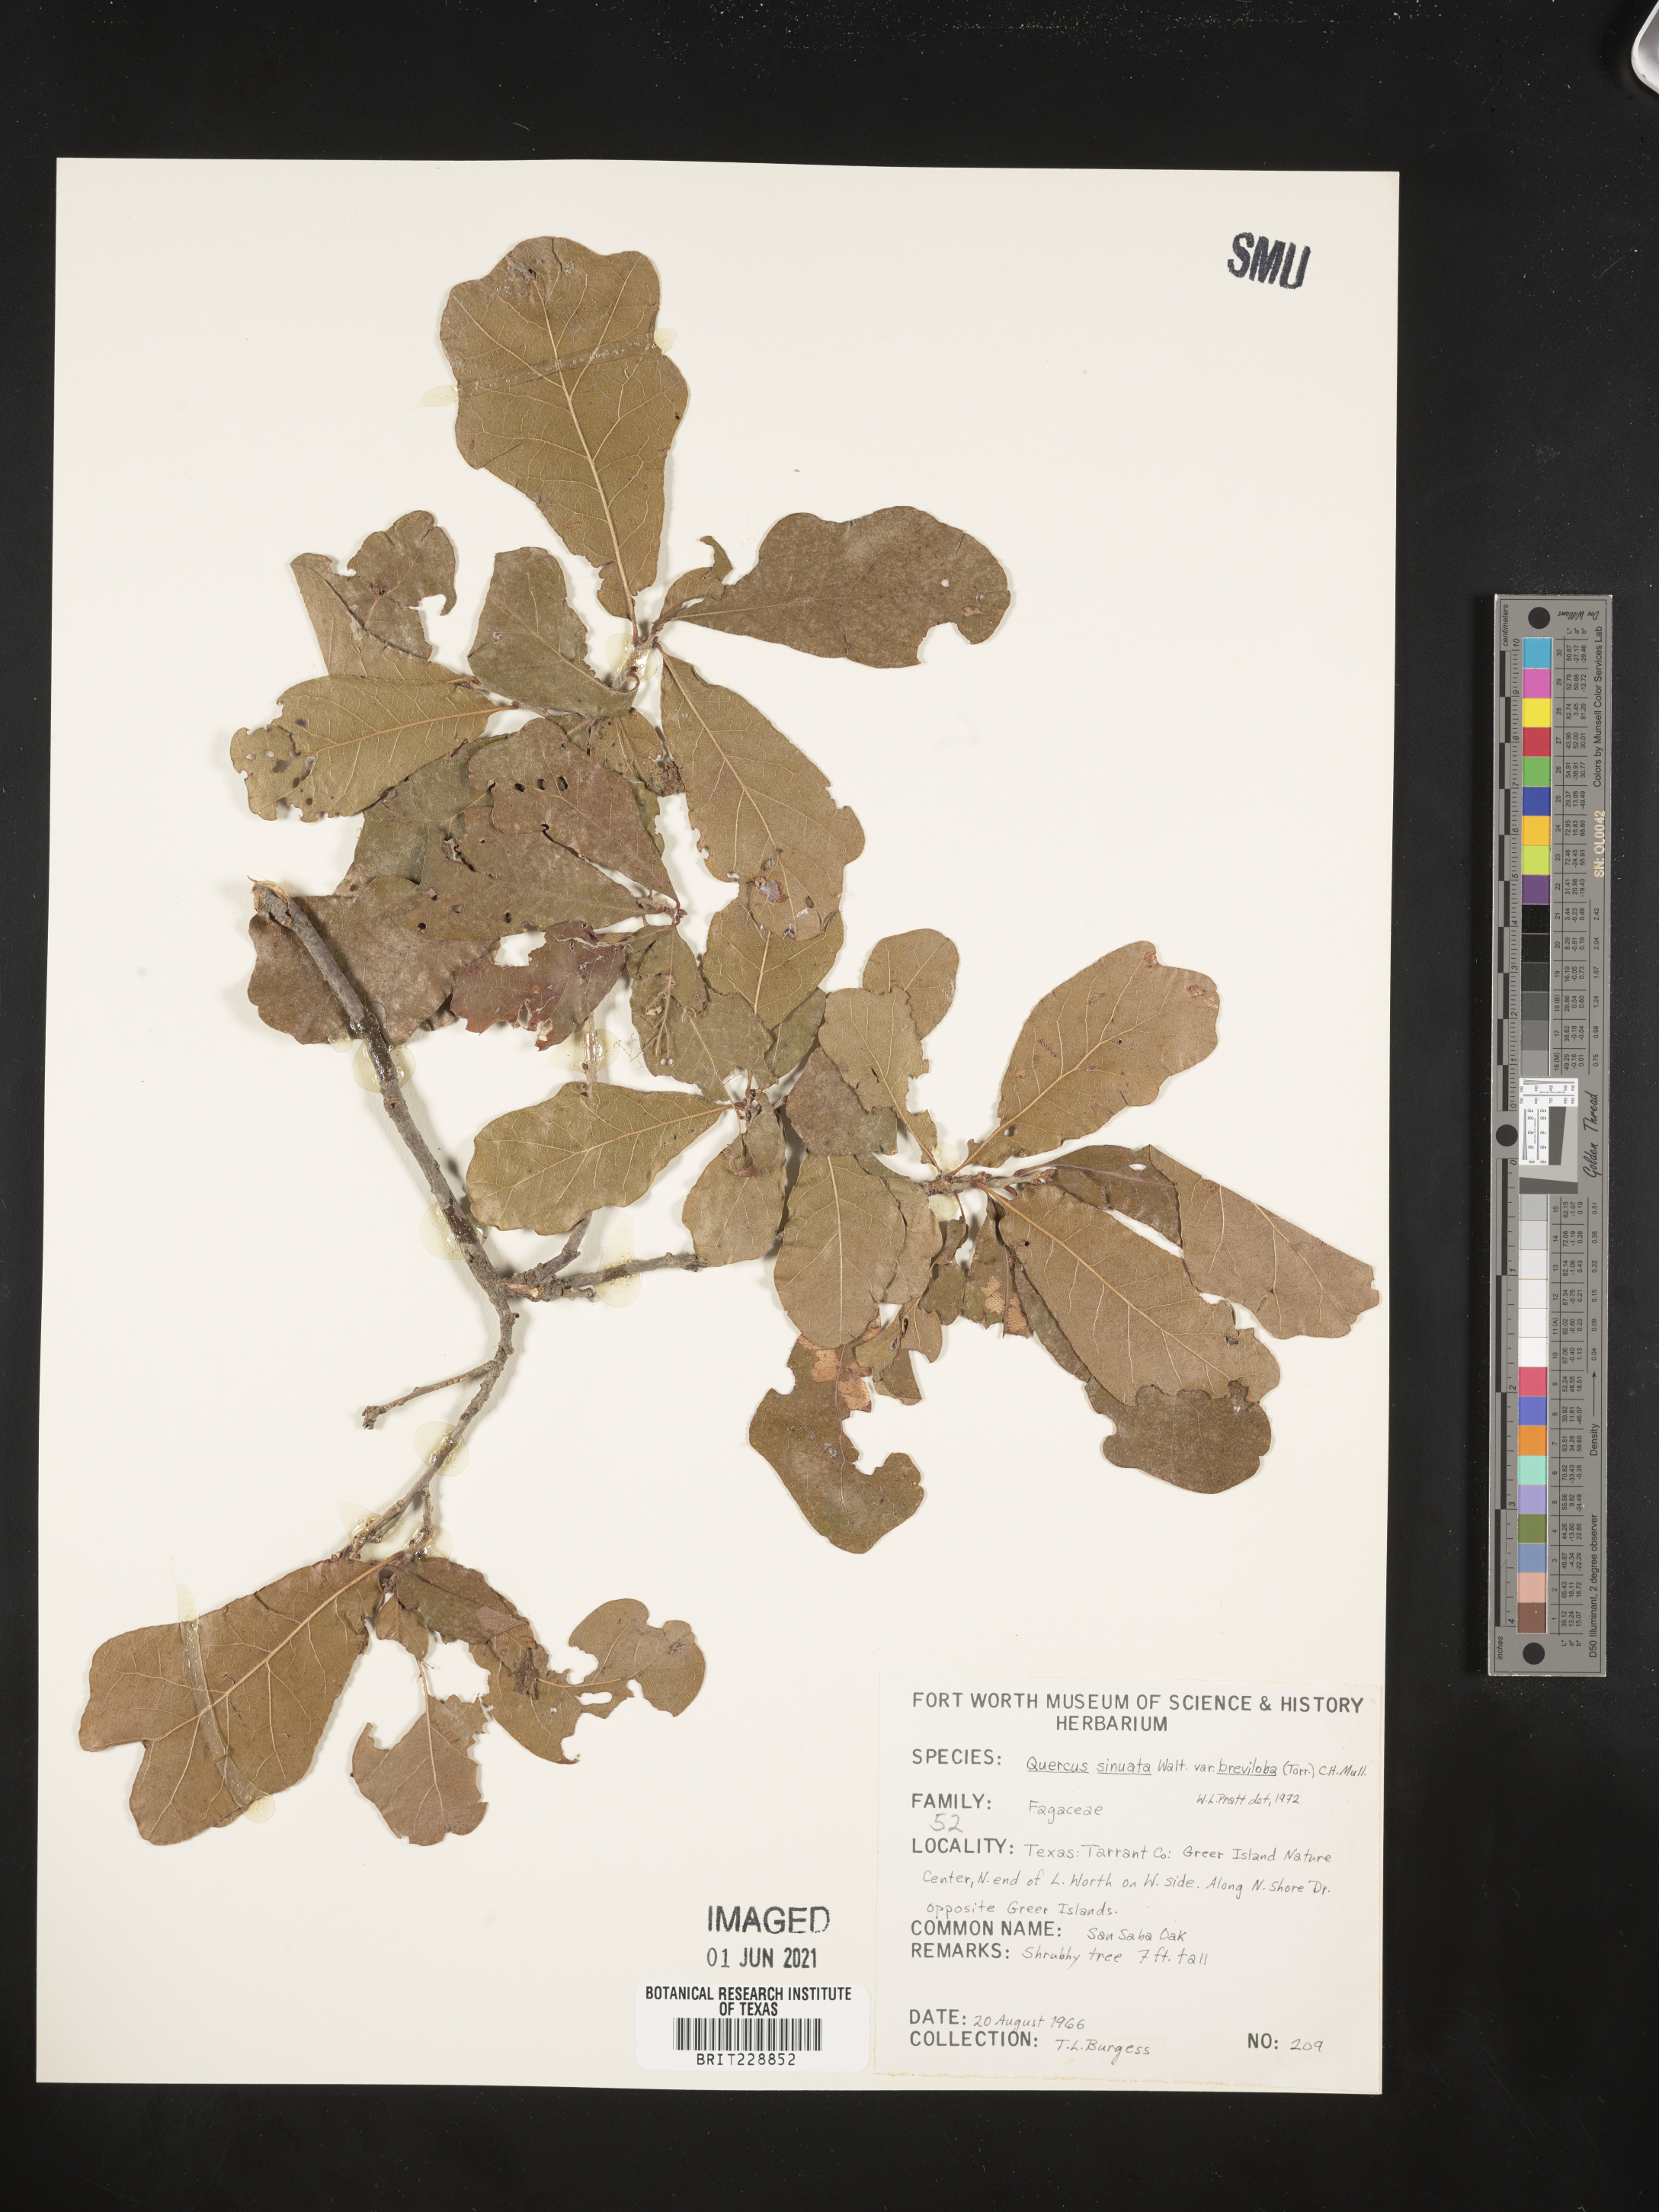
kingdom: Plantae
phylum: Tracheophyta
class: Magnoliopsida
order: Fagales
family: Fagaceae
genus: Quercus
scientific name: Quercus sinuata
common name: Durand oak
